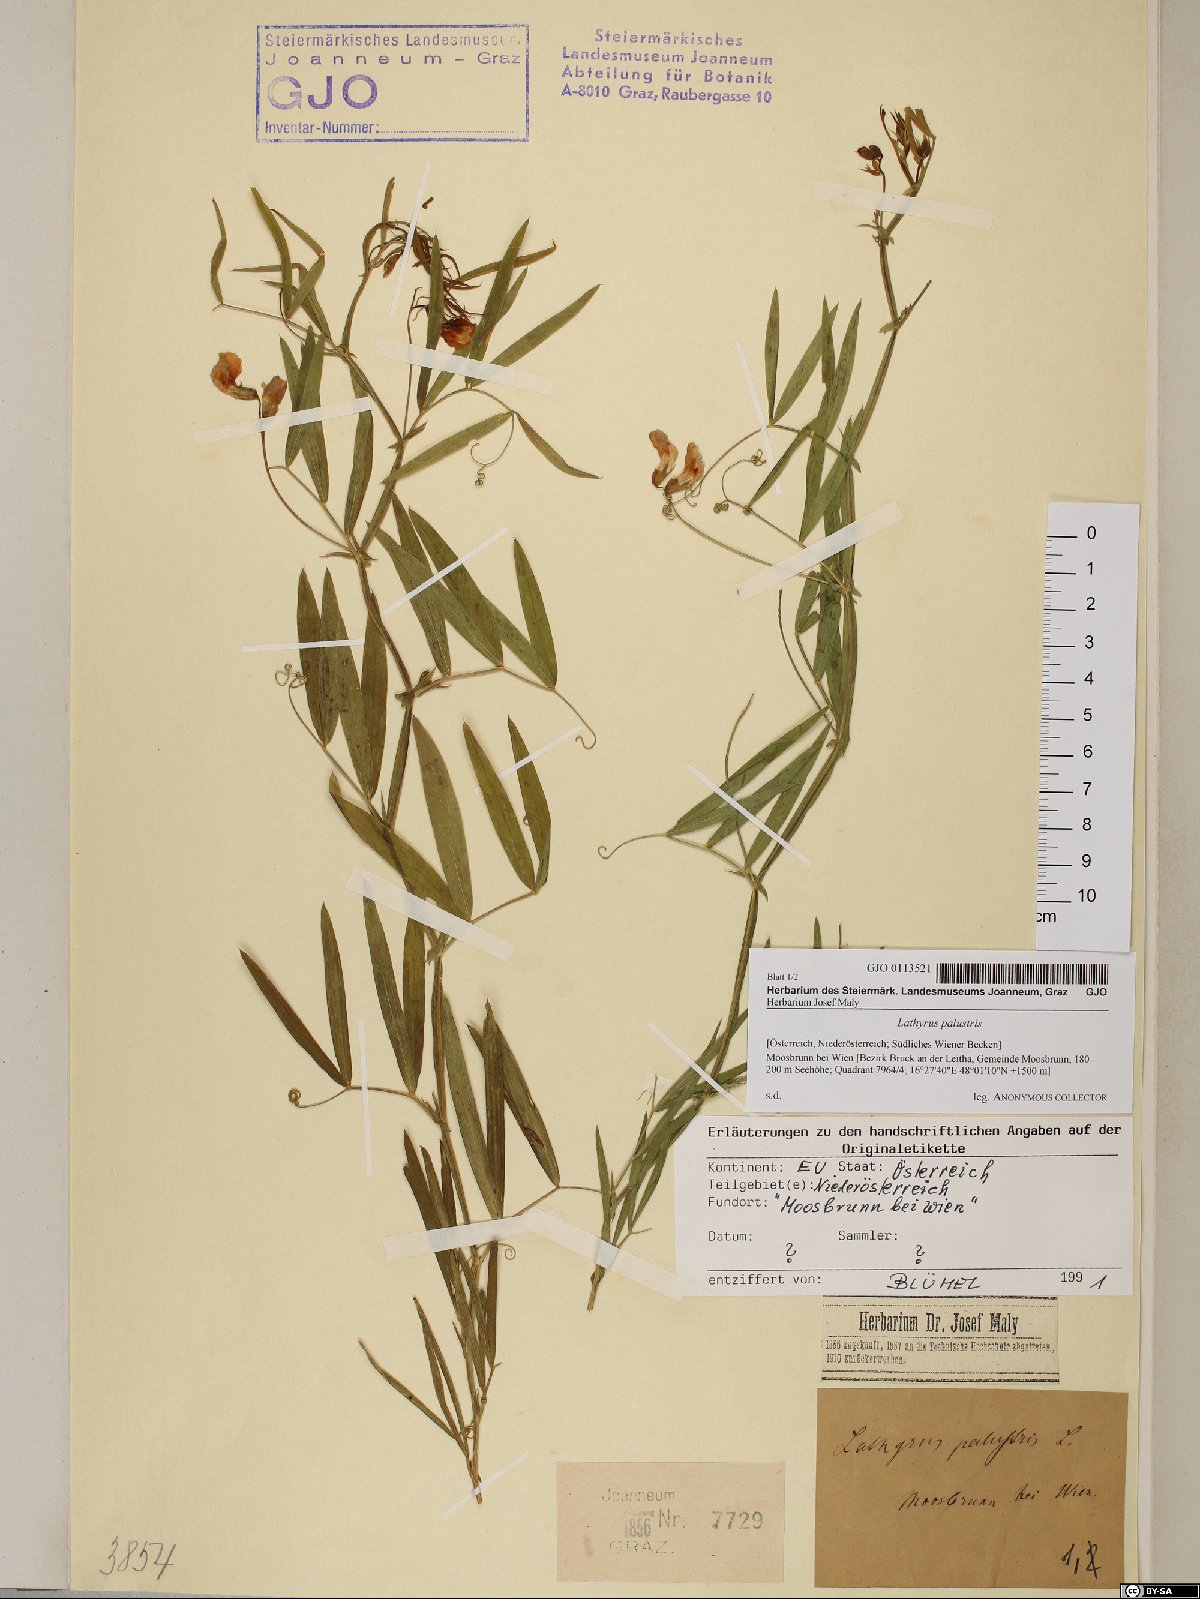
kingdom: Plantae
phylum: Tracheophyta
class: Magnoliopsida
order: Fabales
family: Fabaceae
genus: Lathyrus
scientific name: Lathyrus palustris
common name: Marsh pea
